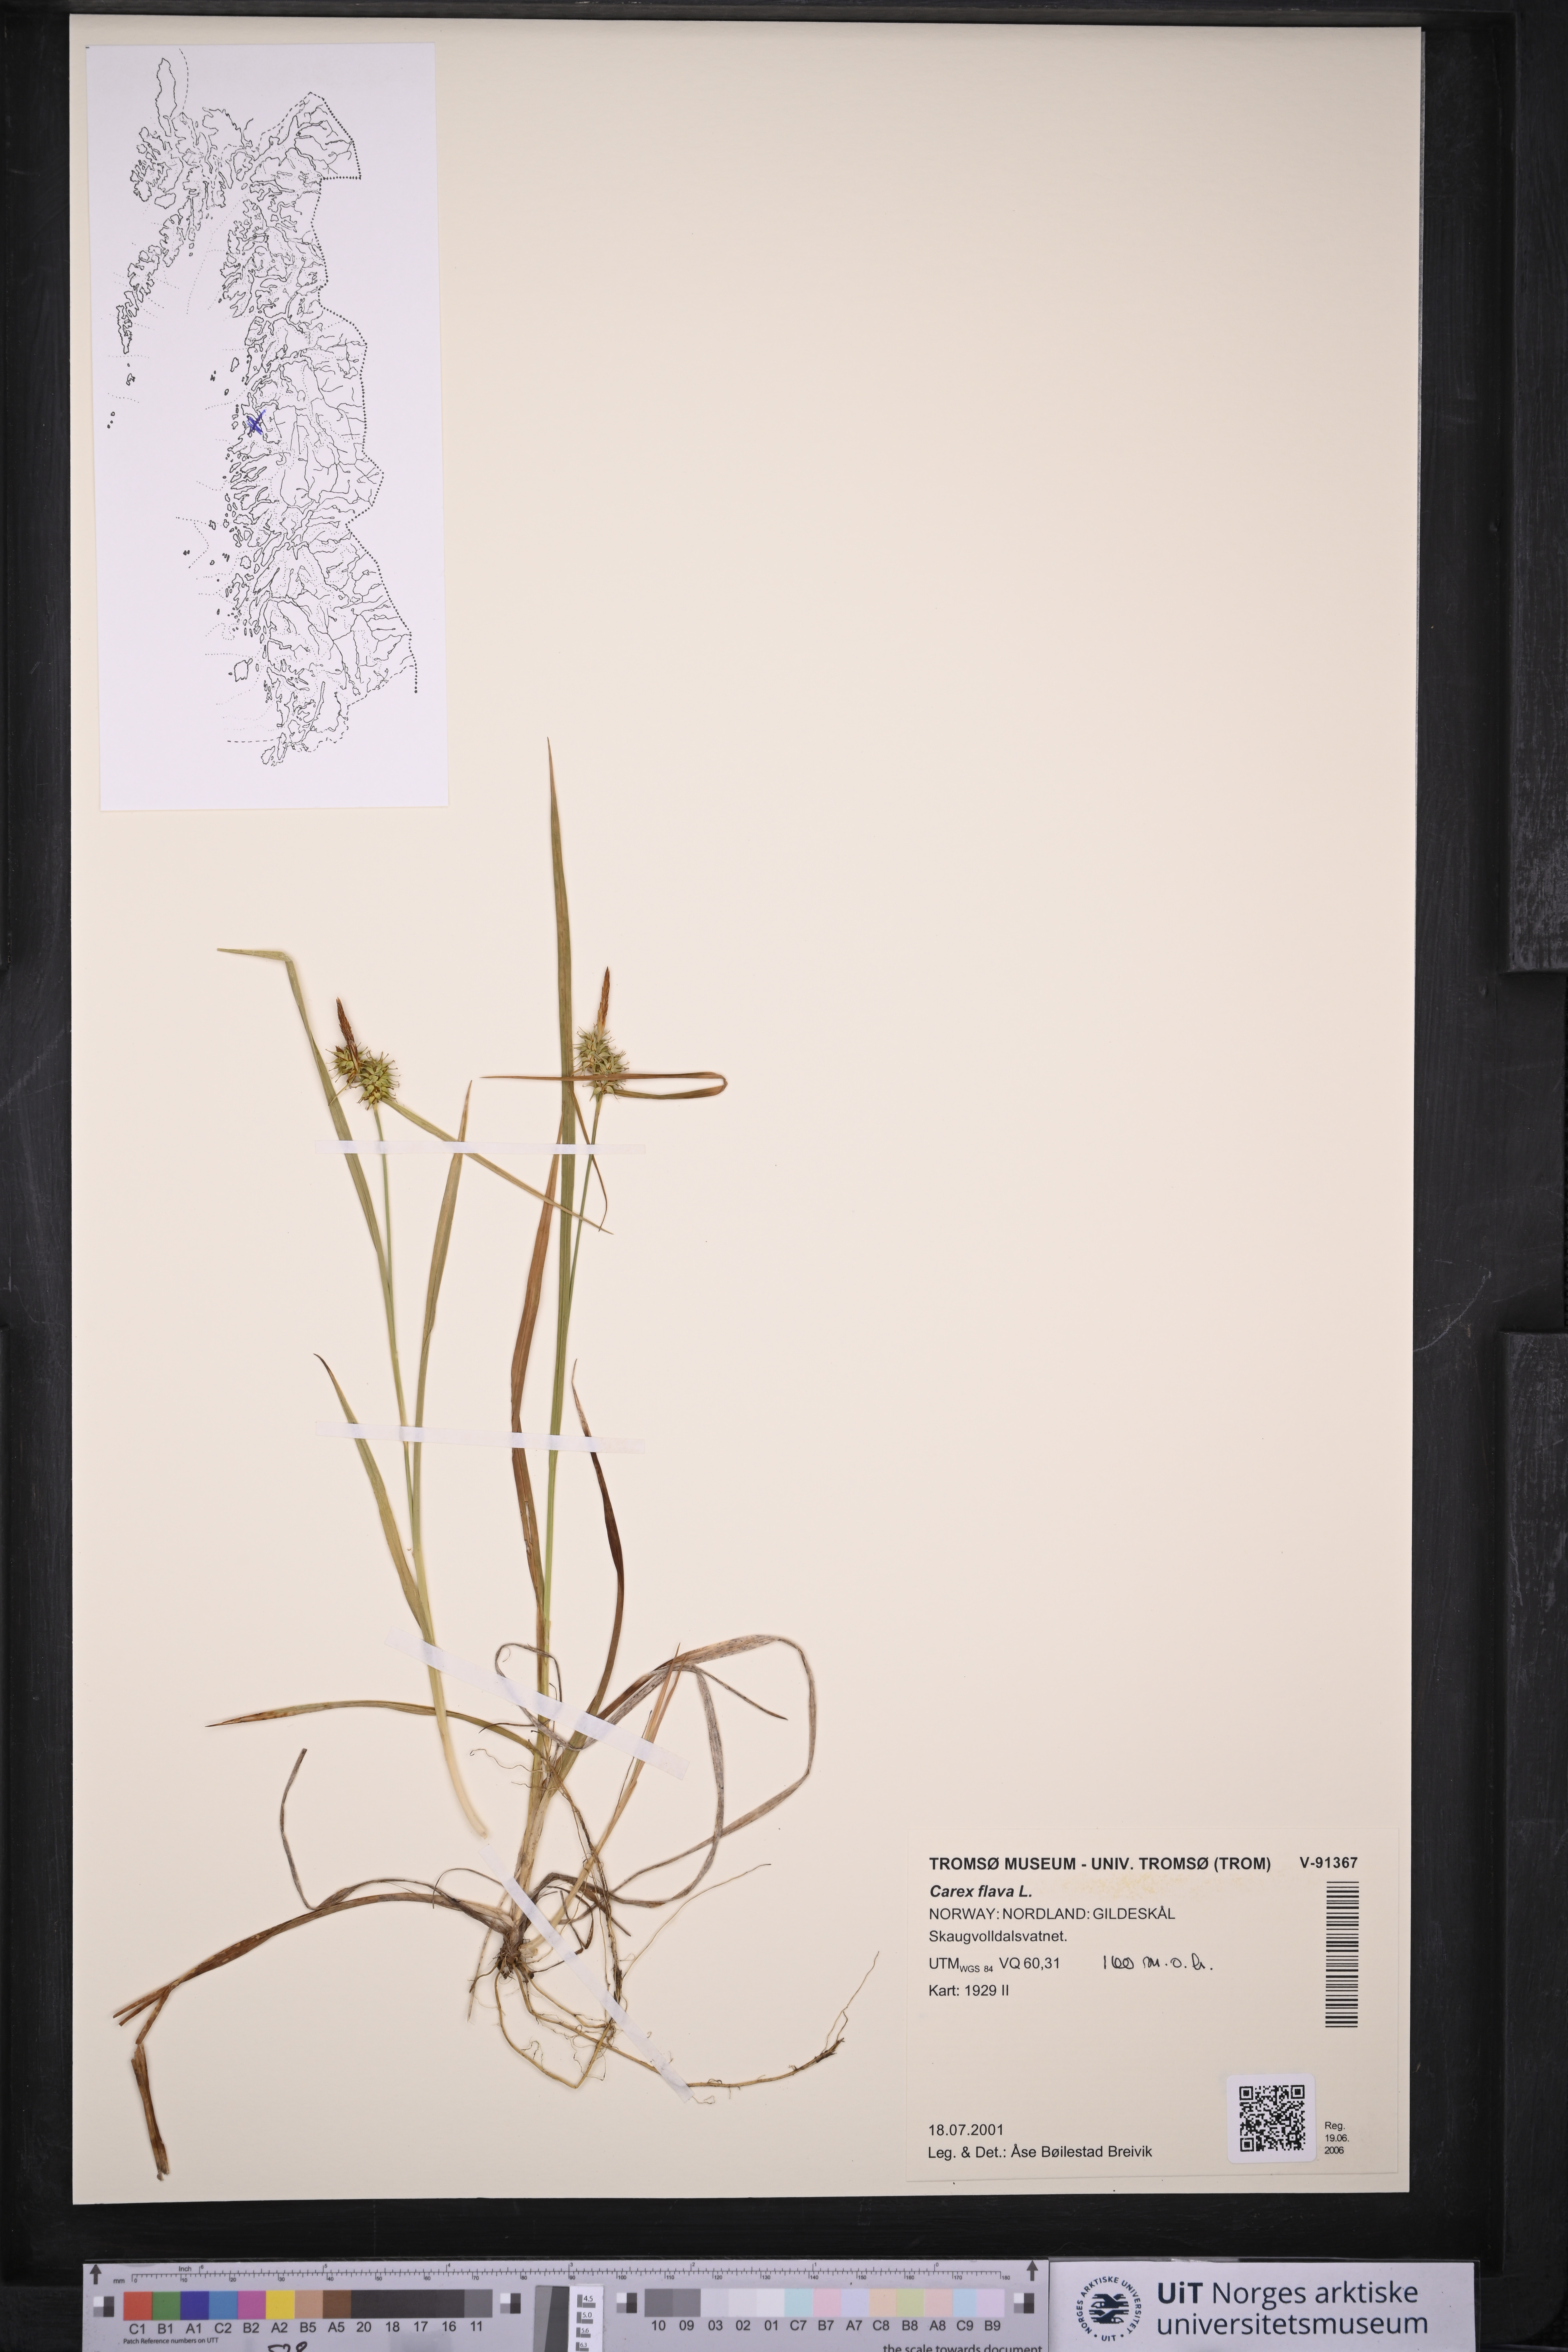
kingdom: Plantae
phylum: Tracheophyta
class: Liliopsida
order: Poales
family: Cyperaceae
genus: Carex
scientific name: Carex flava
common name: Large yellow-sedge
